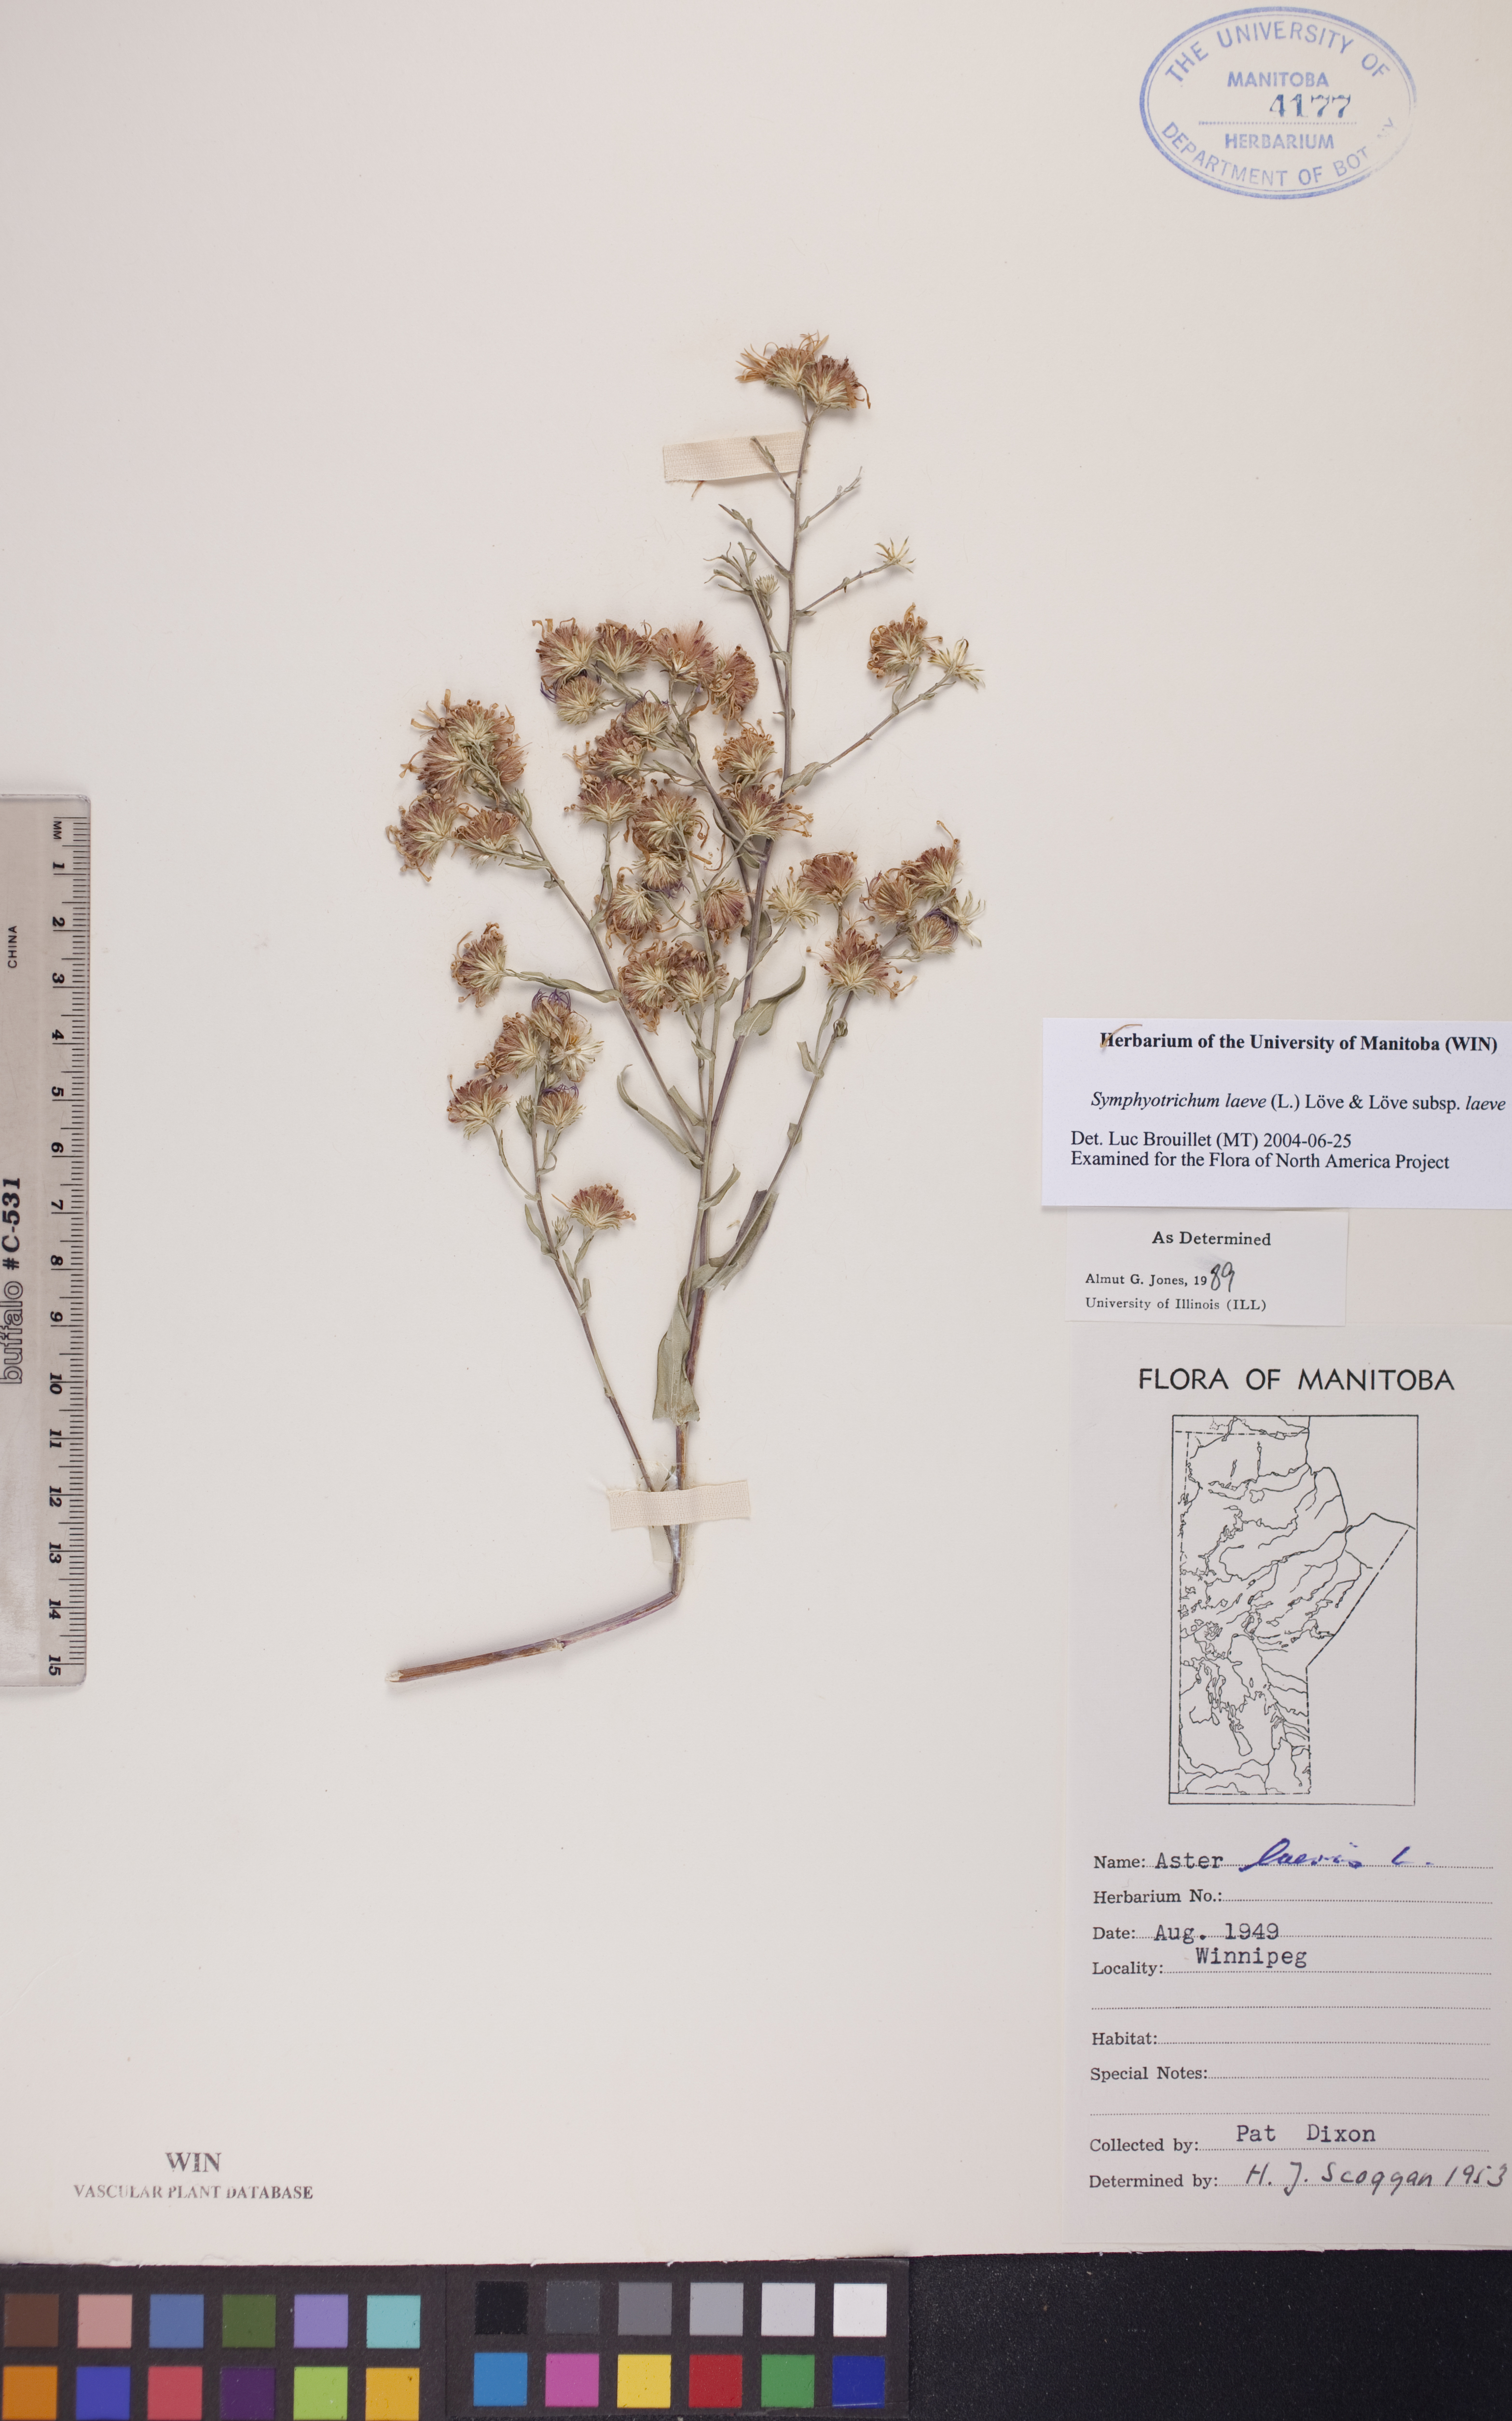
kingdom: Plantae
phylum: Tracheophyta
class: Magnoliopsida
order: Asterales
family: Asteraceae
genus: Symphyotrichum
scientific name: Symphyotrichum laeve
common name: Glaucous aster
